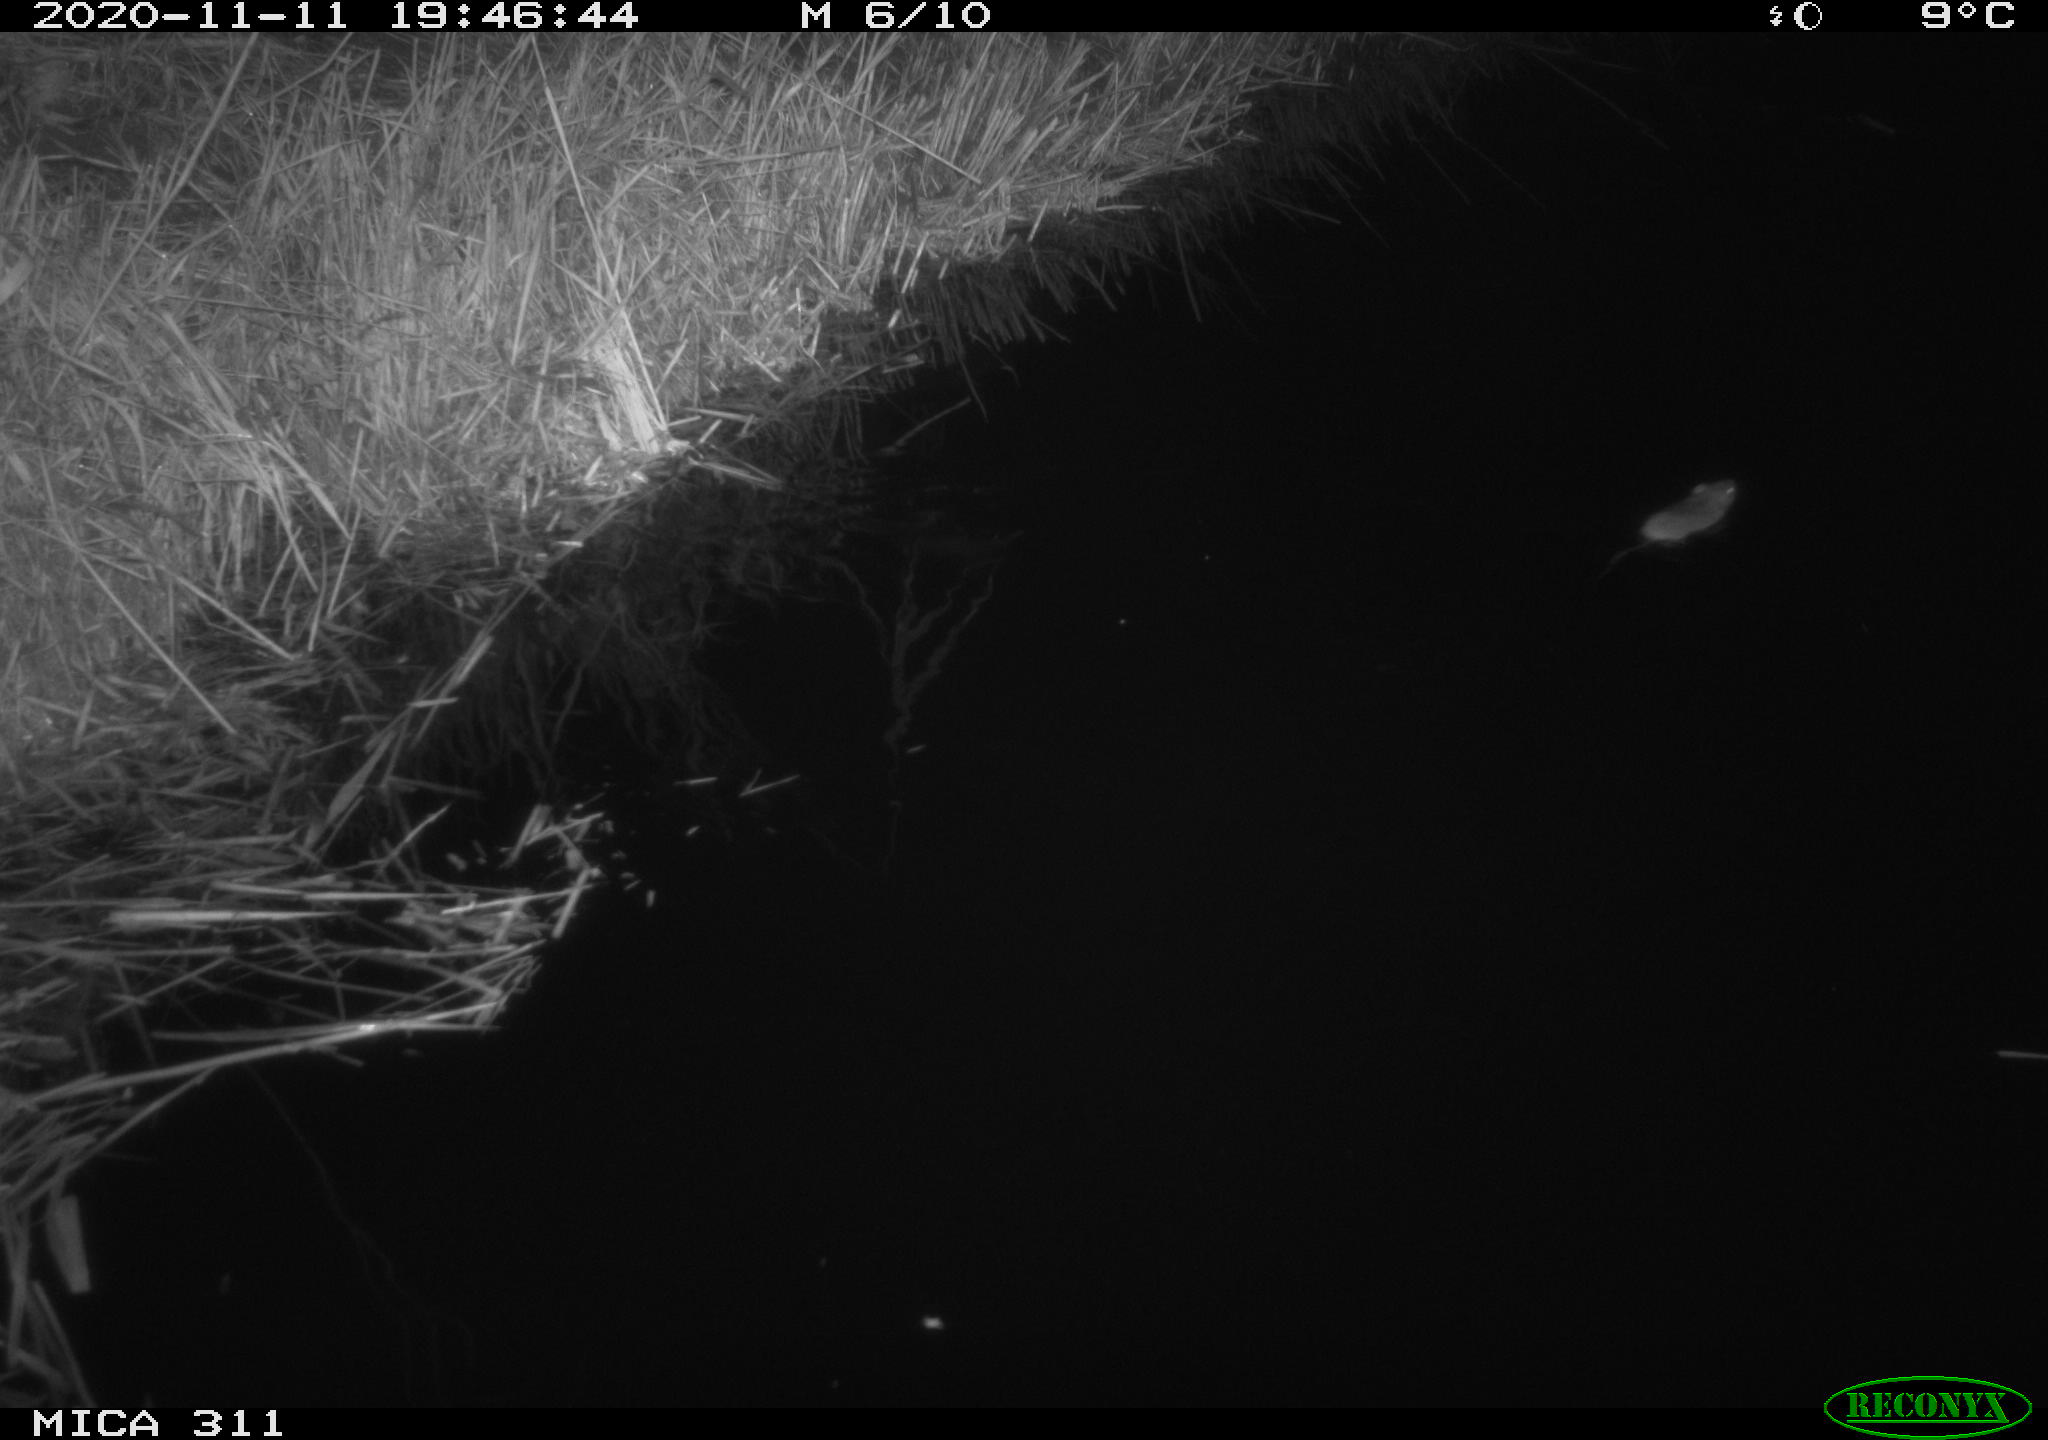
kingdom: Animalia
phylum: Chordata
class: Mammalia
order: Rodentia
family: Muridae
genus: Rattus
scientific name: Rattus norvegicus
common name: Brown rat
